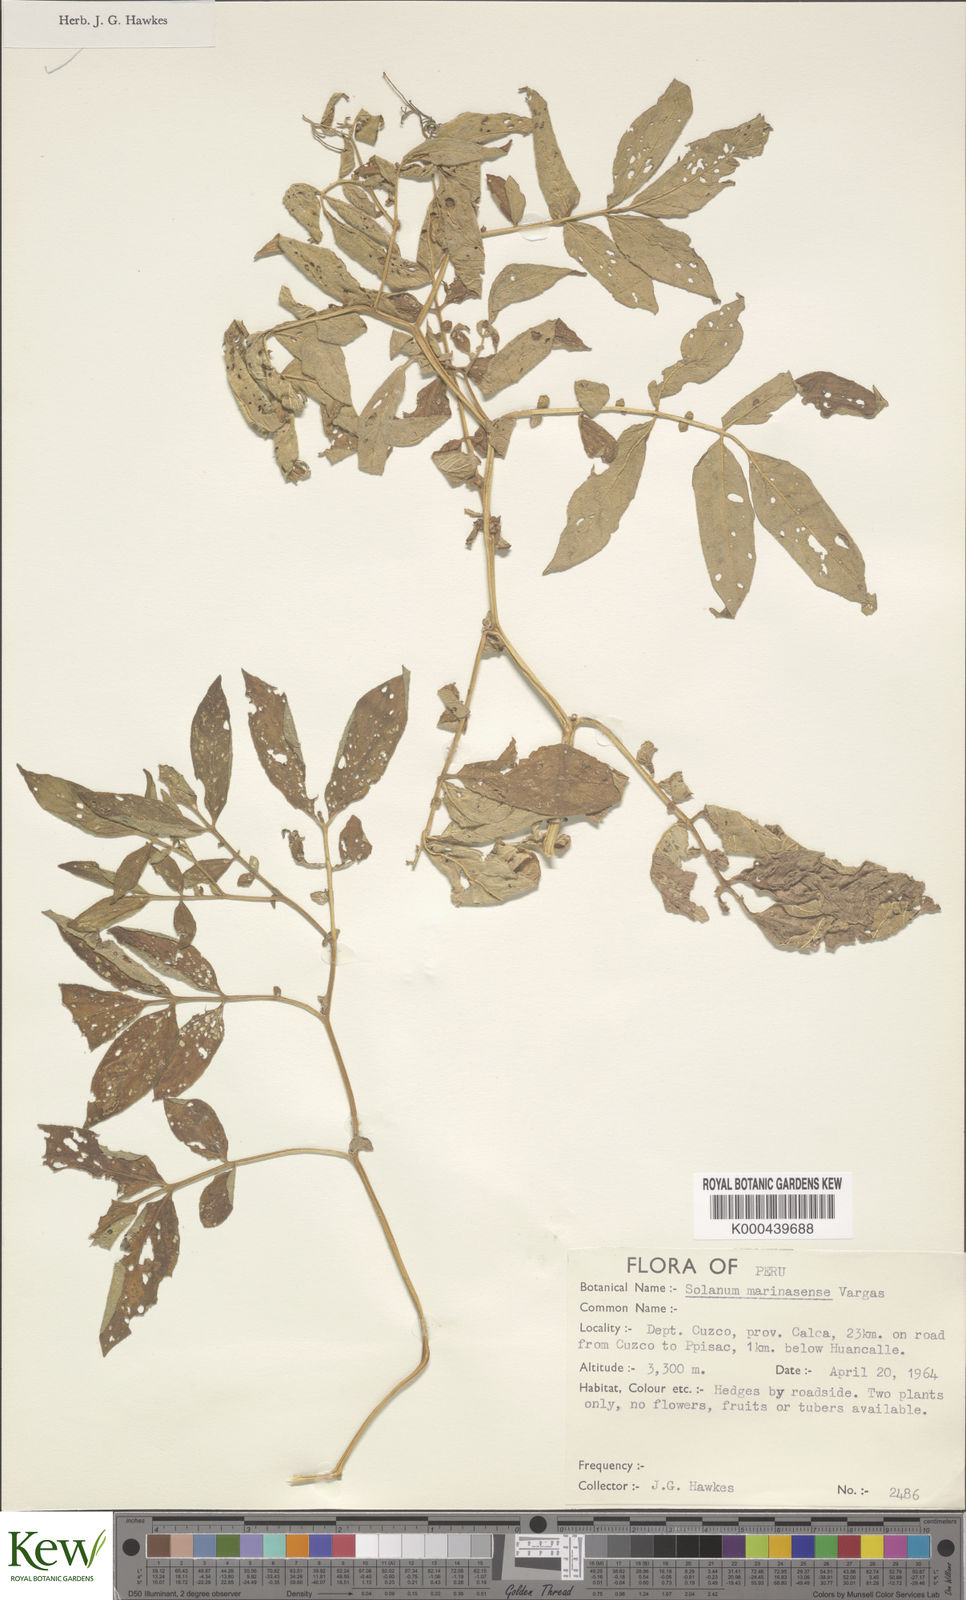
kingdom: Plantae
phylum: Tracheophyta
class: Magnoliopsida
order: Solanales
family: Solanaceae
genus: Solanum
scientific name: Solanum candolleanum
